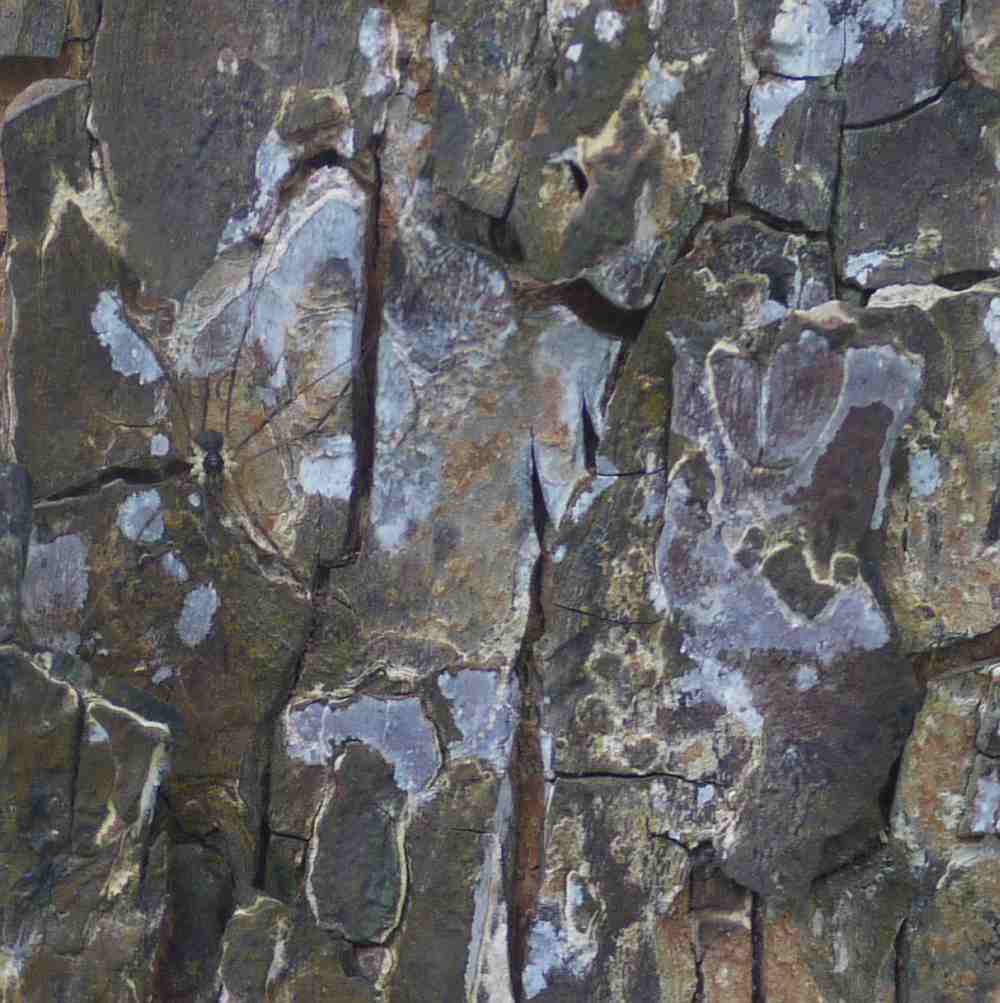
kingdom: Fungi
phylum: Basidiomycota
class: Agaricomycetes
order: Agaricales
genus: Dendrothele
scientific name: Dendrothele acerina
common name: navr-kalkplet
